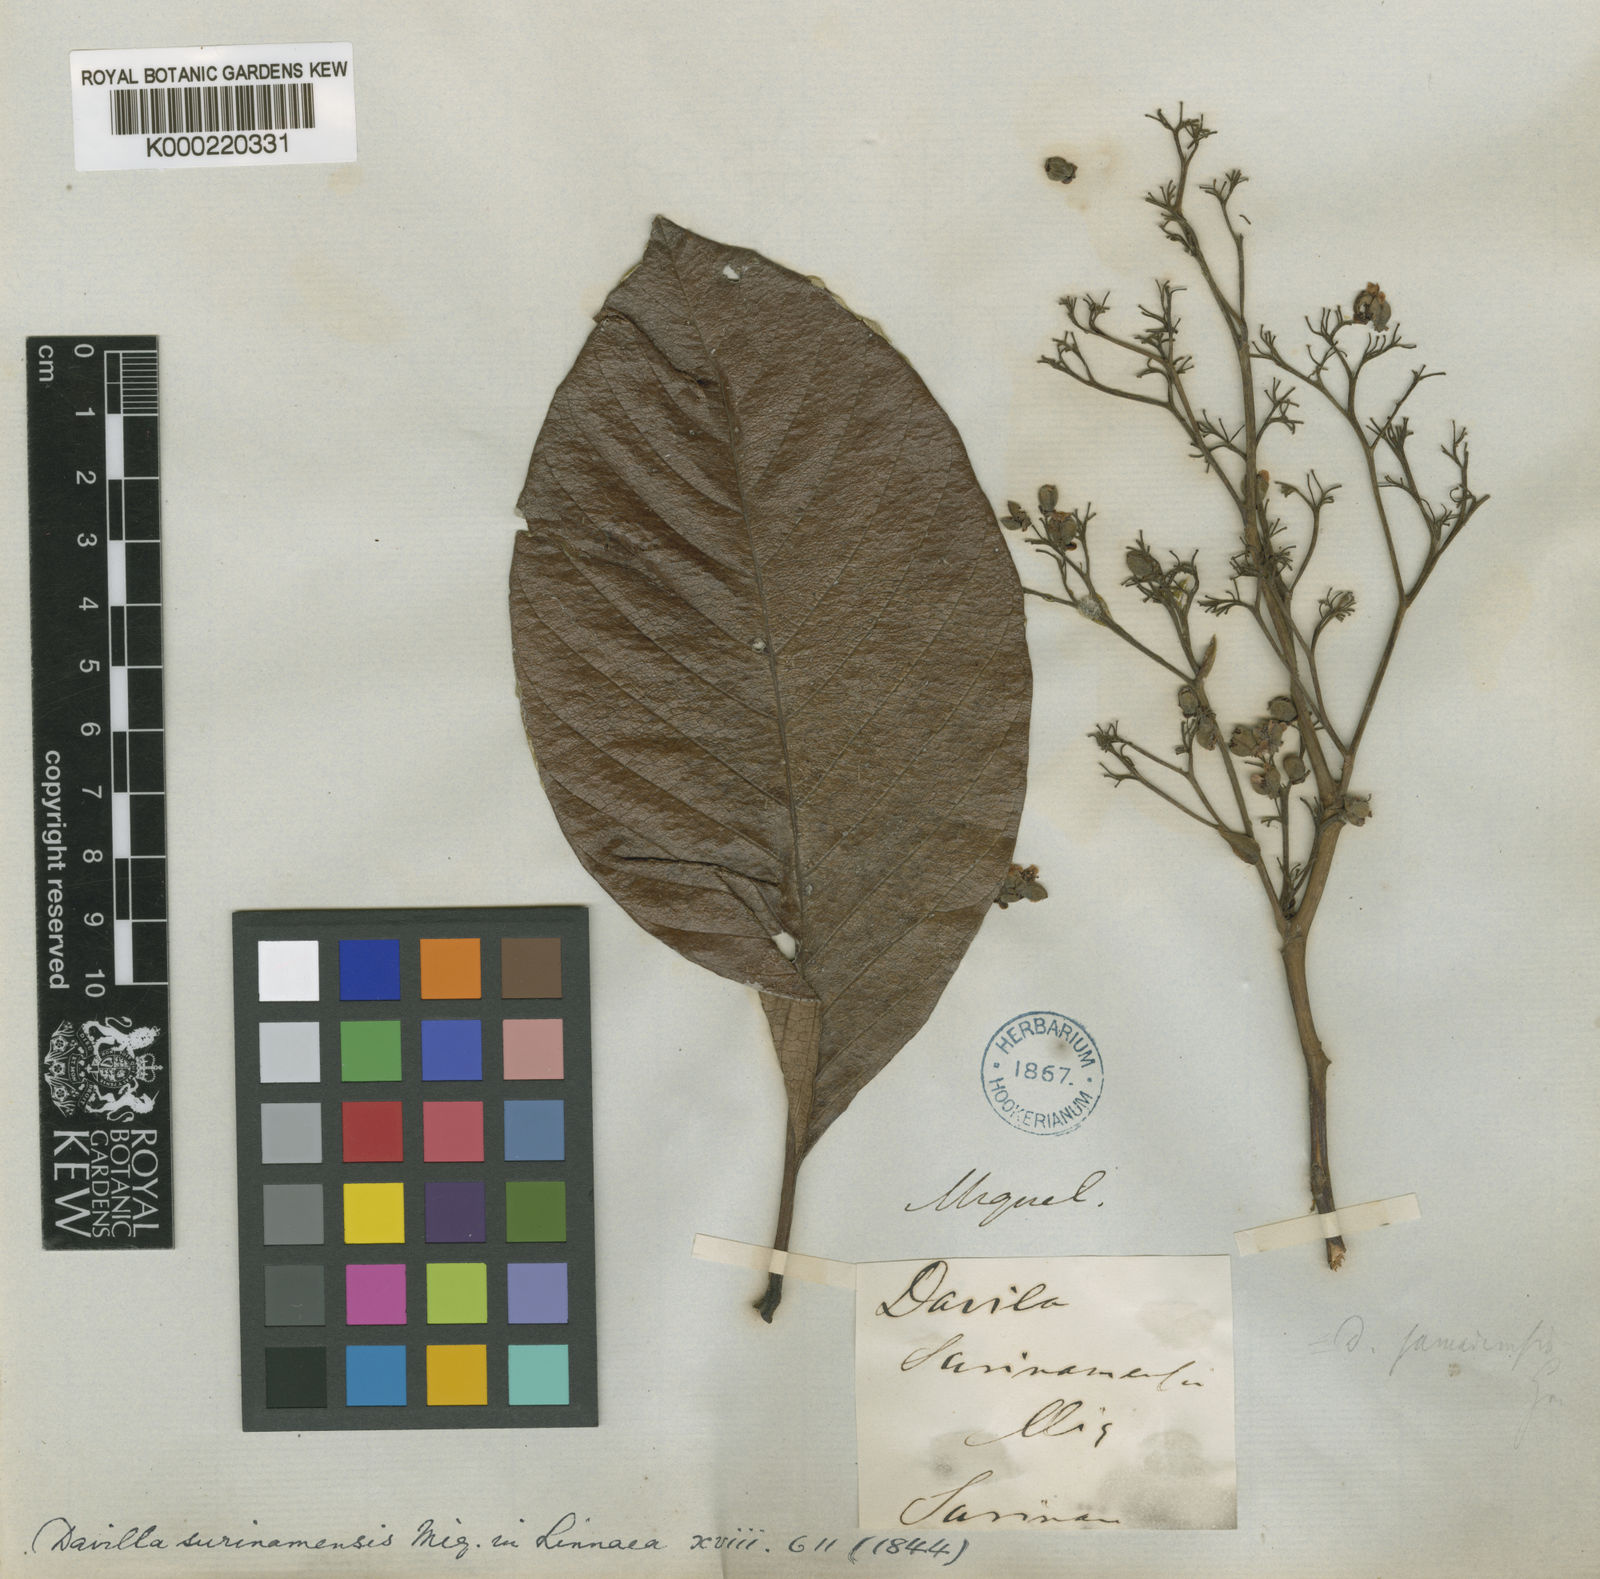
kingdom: Plantae
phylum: Tracheophyta
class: Magnoliopsida
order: Dilleniales
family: Dilleniaceae
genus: Davilla
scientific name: Davilla kunthii
